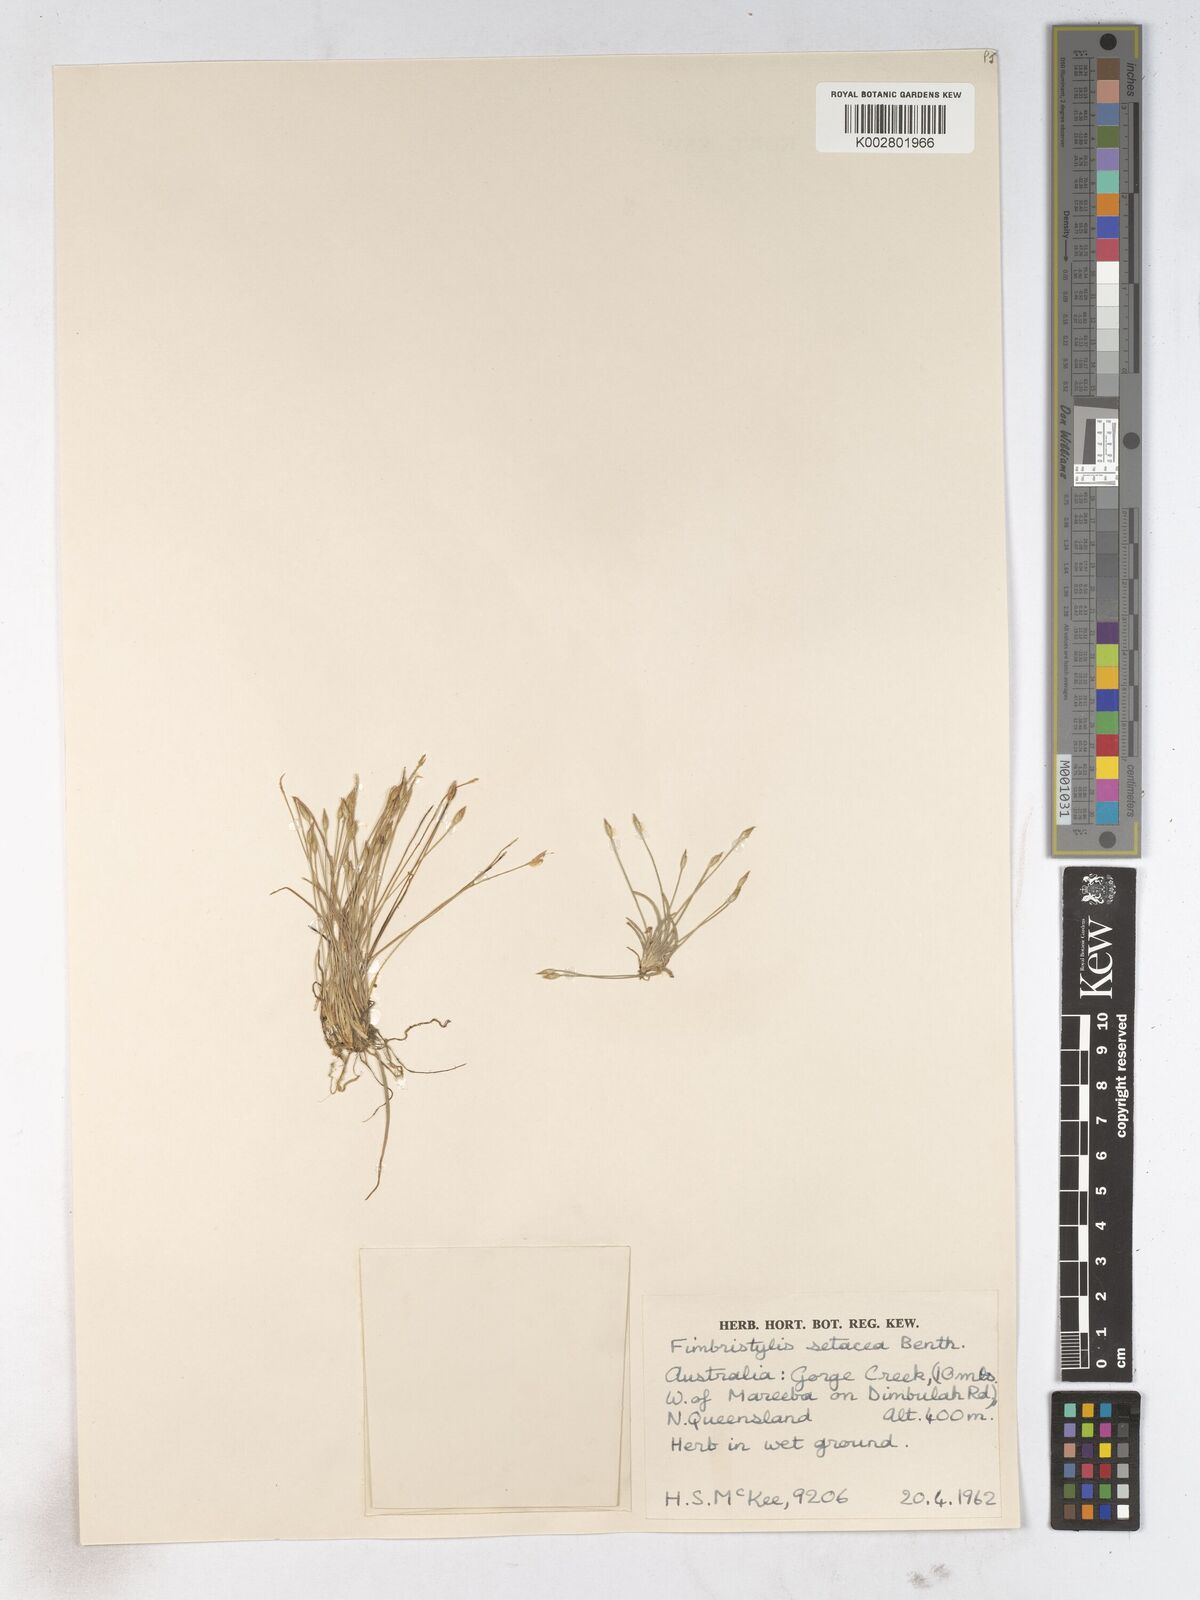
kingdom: Plantae
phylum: Tracheophyta
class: Liliopsida
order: Poales
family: Cyperaceae
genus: Fimbristylis
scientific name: Fimbristylis acicularis
